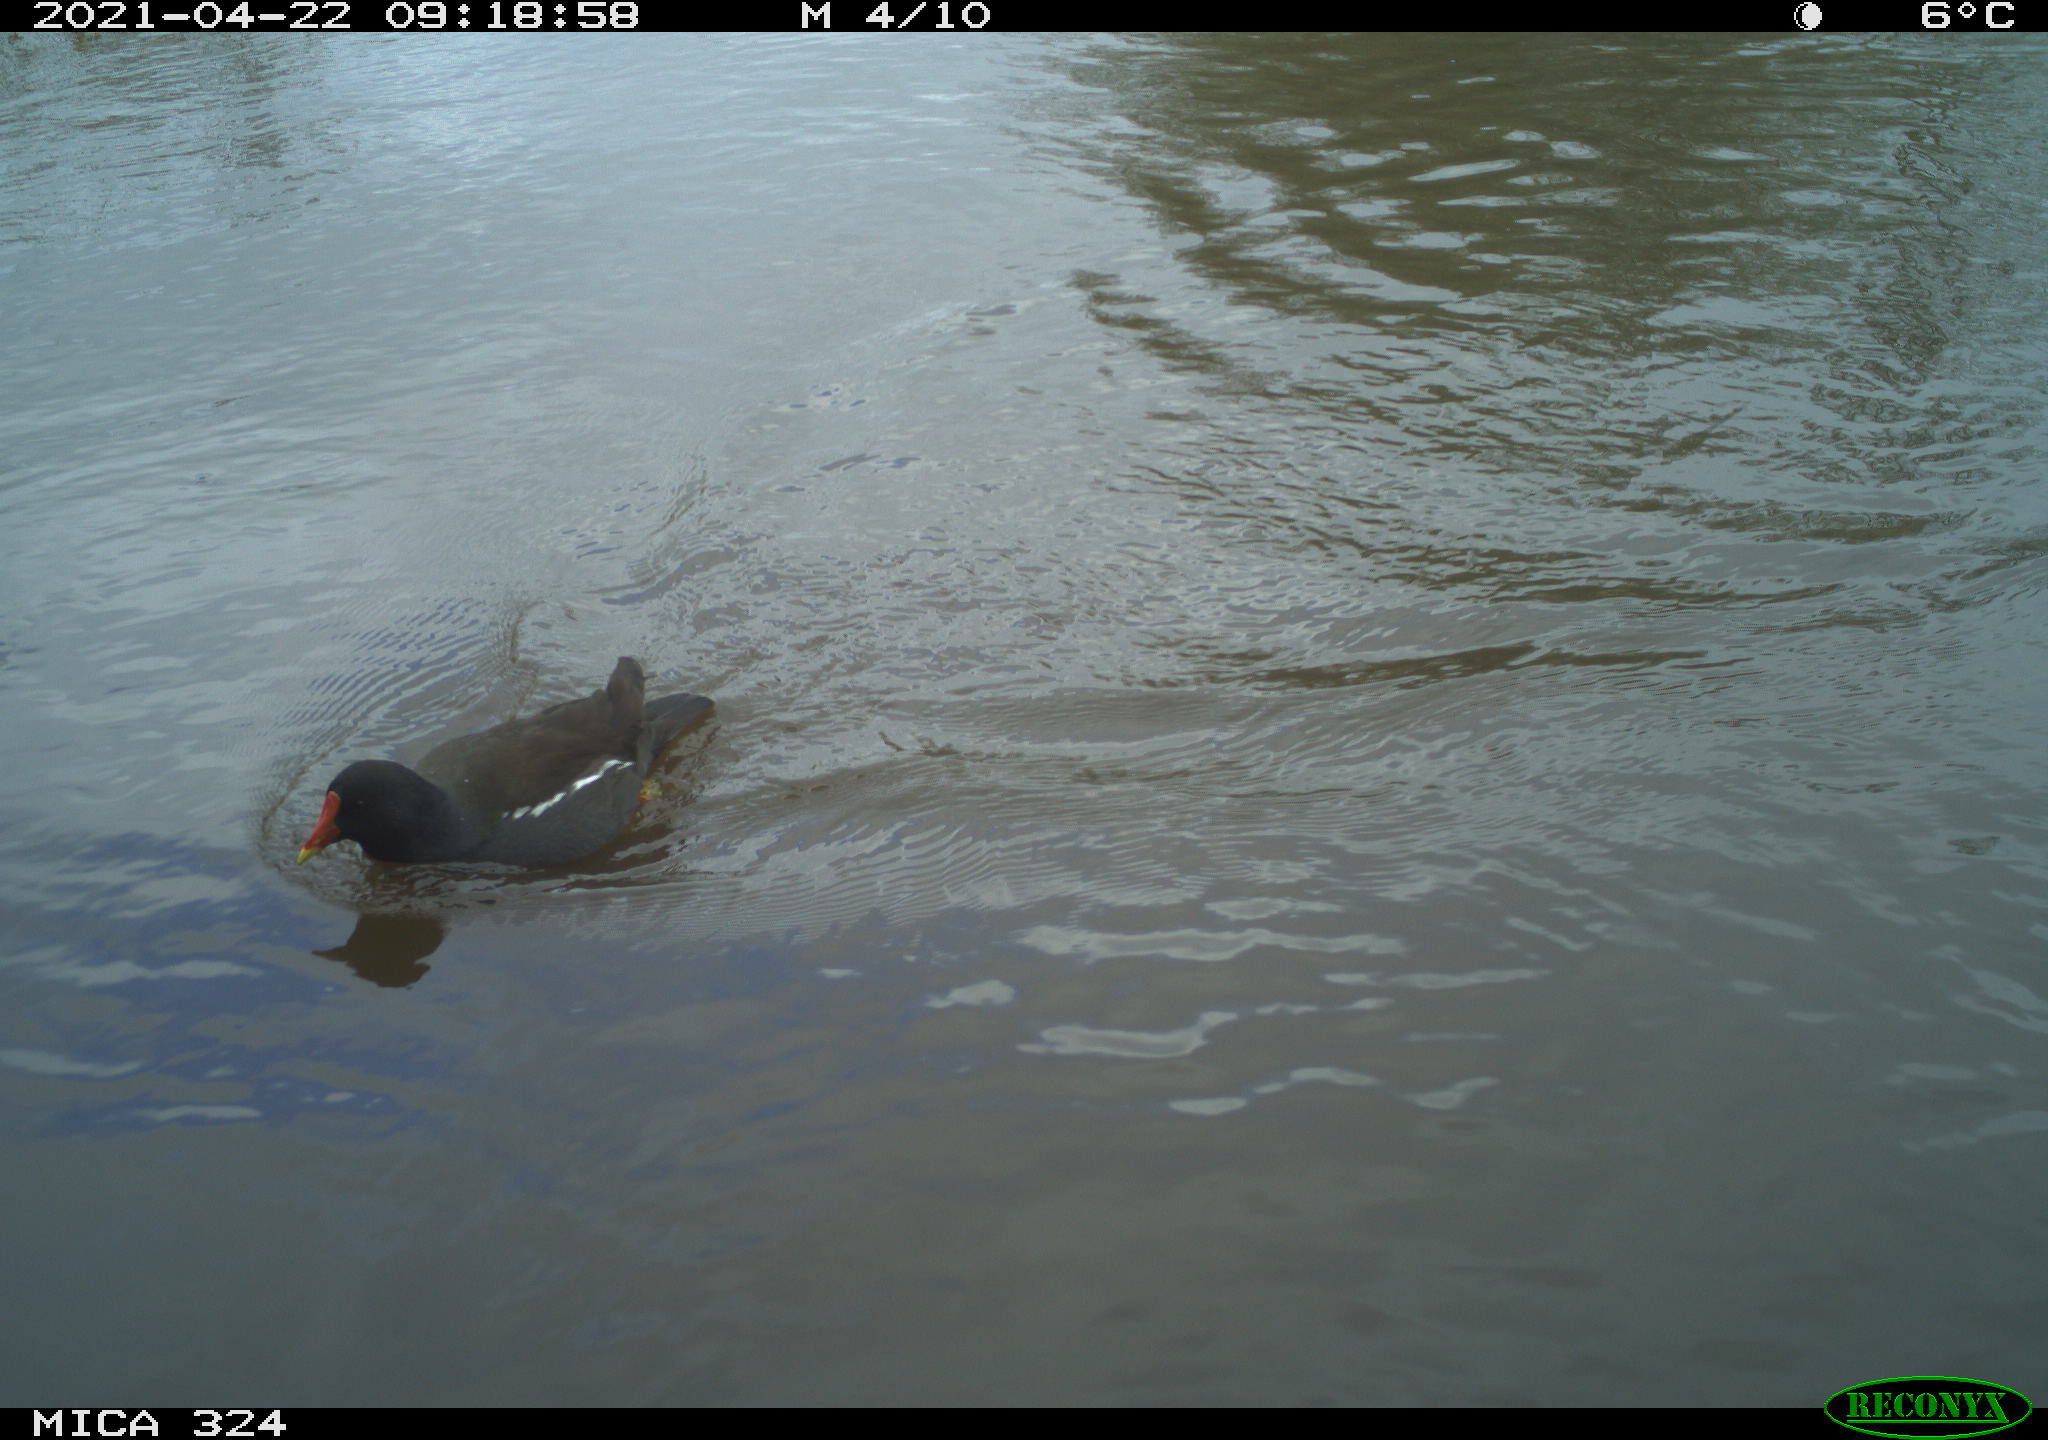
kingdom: Animalia
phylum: Chordata
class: Aves
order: Gruiformes
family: Rallidae
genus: Gallinula
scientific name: Gallinula chloropus
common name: Common moorhen
